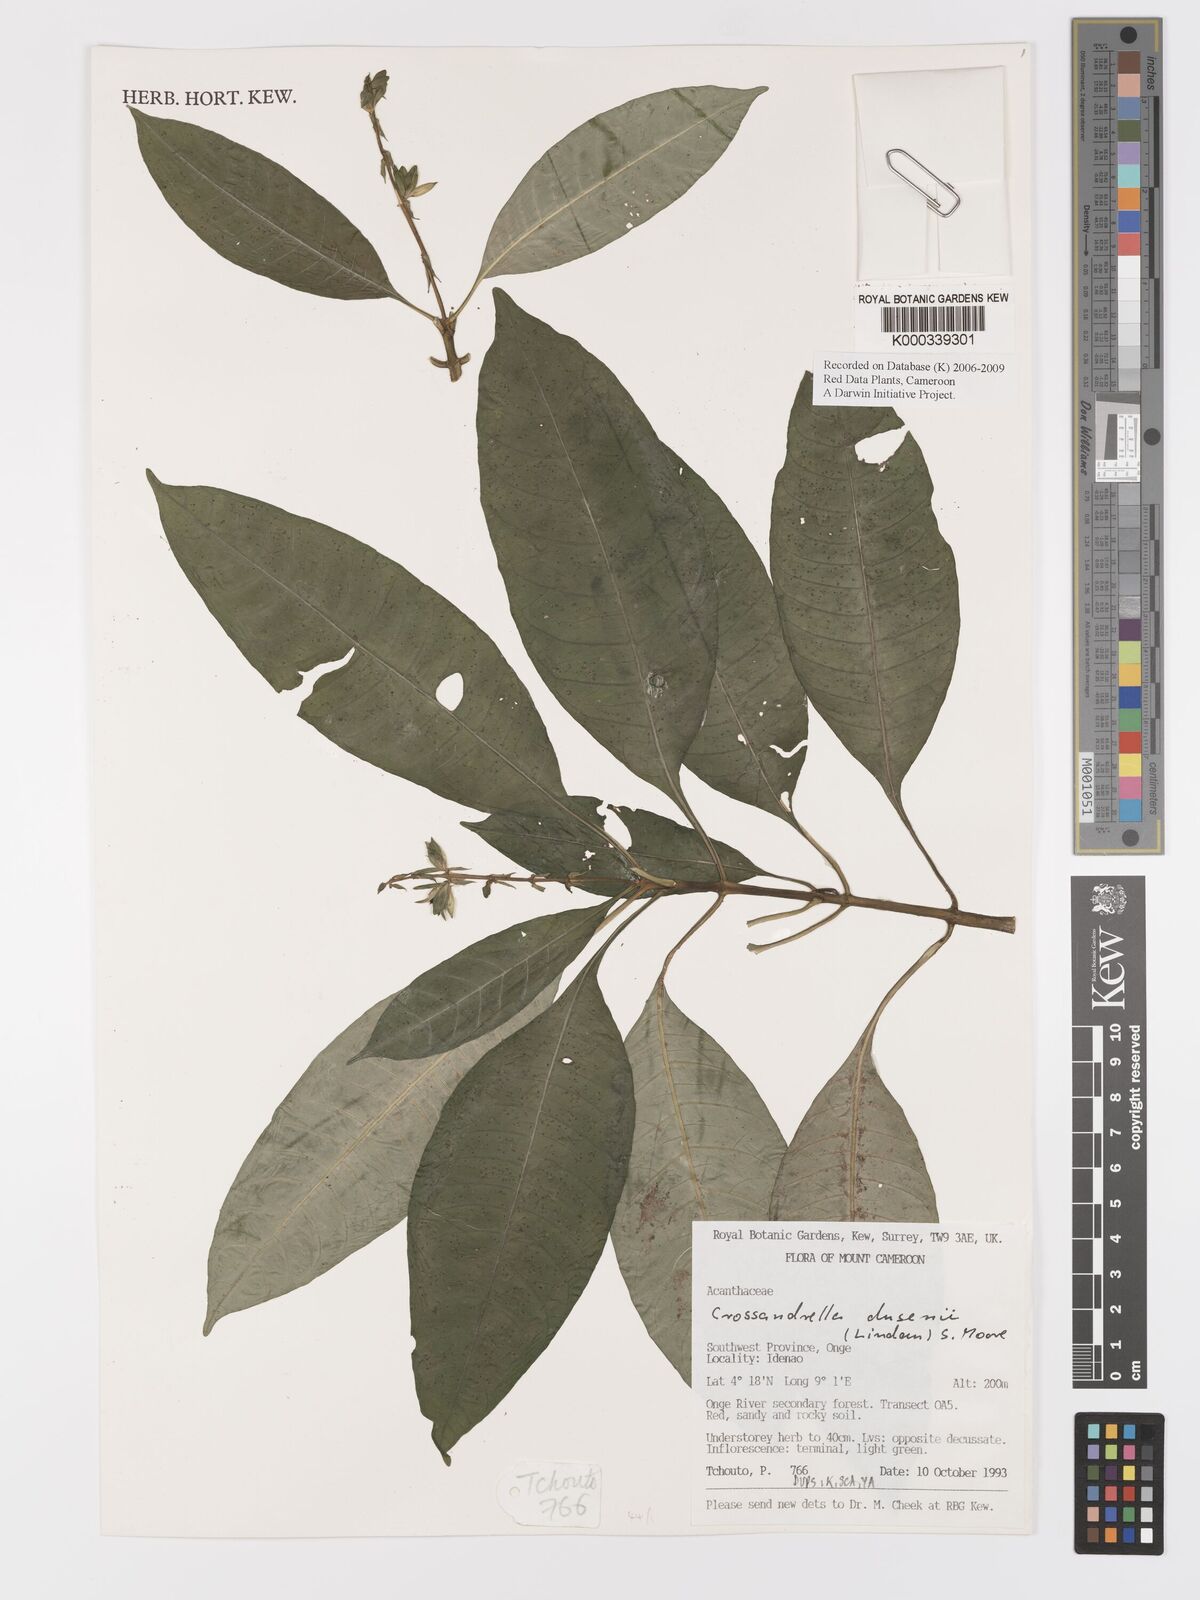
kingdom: Plantae
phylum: Tracheophyta
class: Magnoliopsida
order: Lamiales
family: Acanthaceae
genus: Crossandrella
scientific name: Crossandrella dusenii
